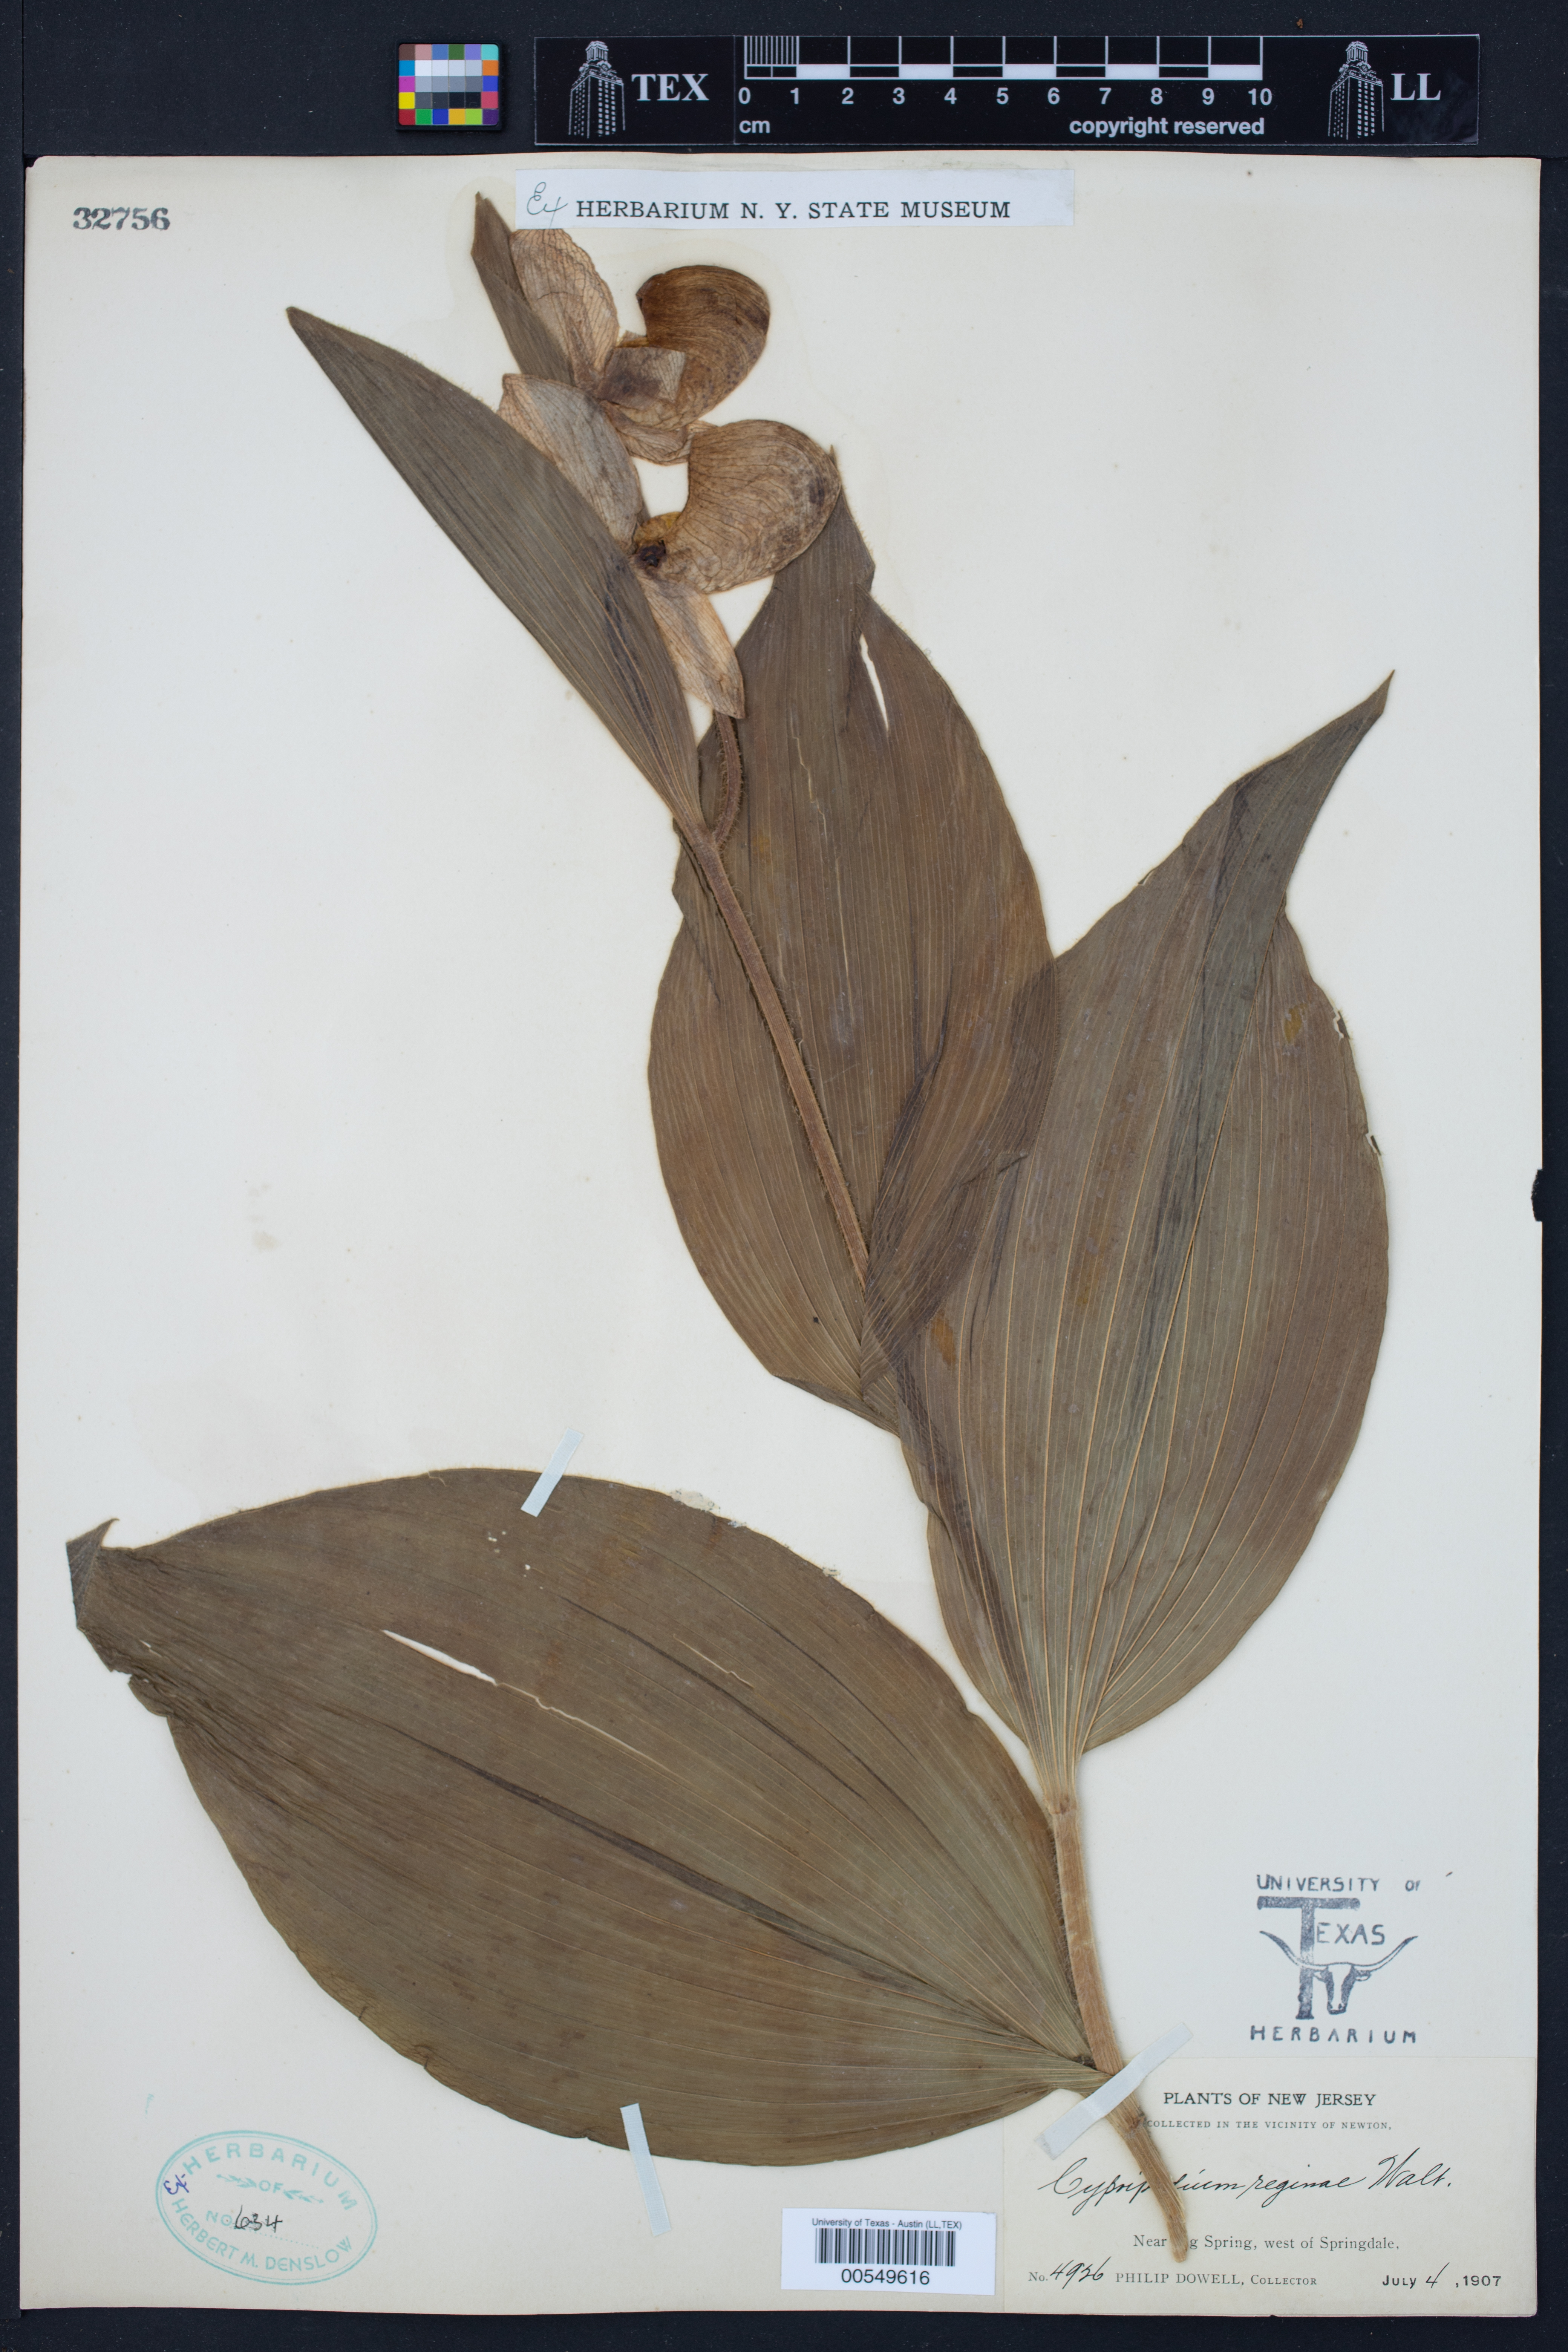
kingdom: Plantae
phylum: Tracheophyta
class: Liliopsida
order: Asparagales
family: Orchidaceae
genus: Cypripedium
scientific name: Cypripedium reginae
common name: Queen lady's-slipper
